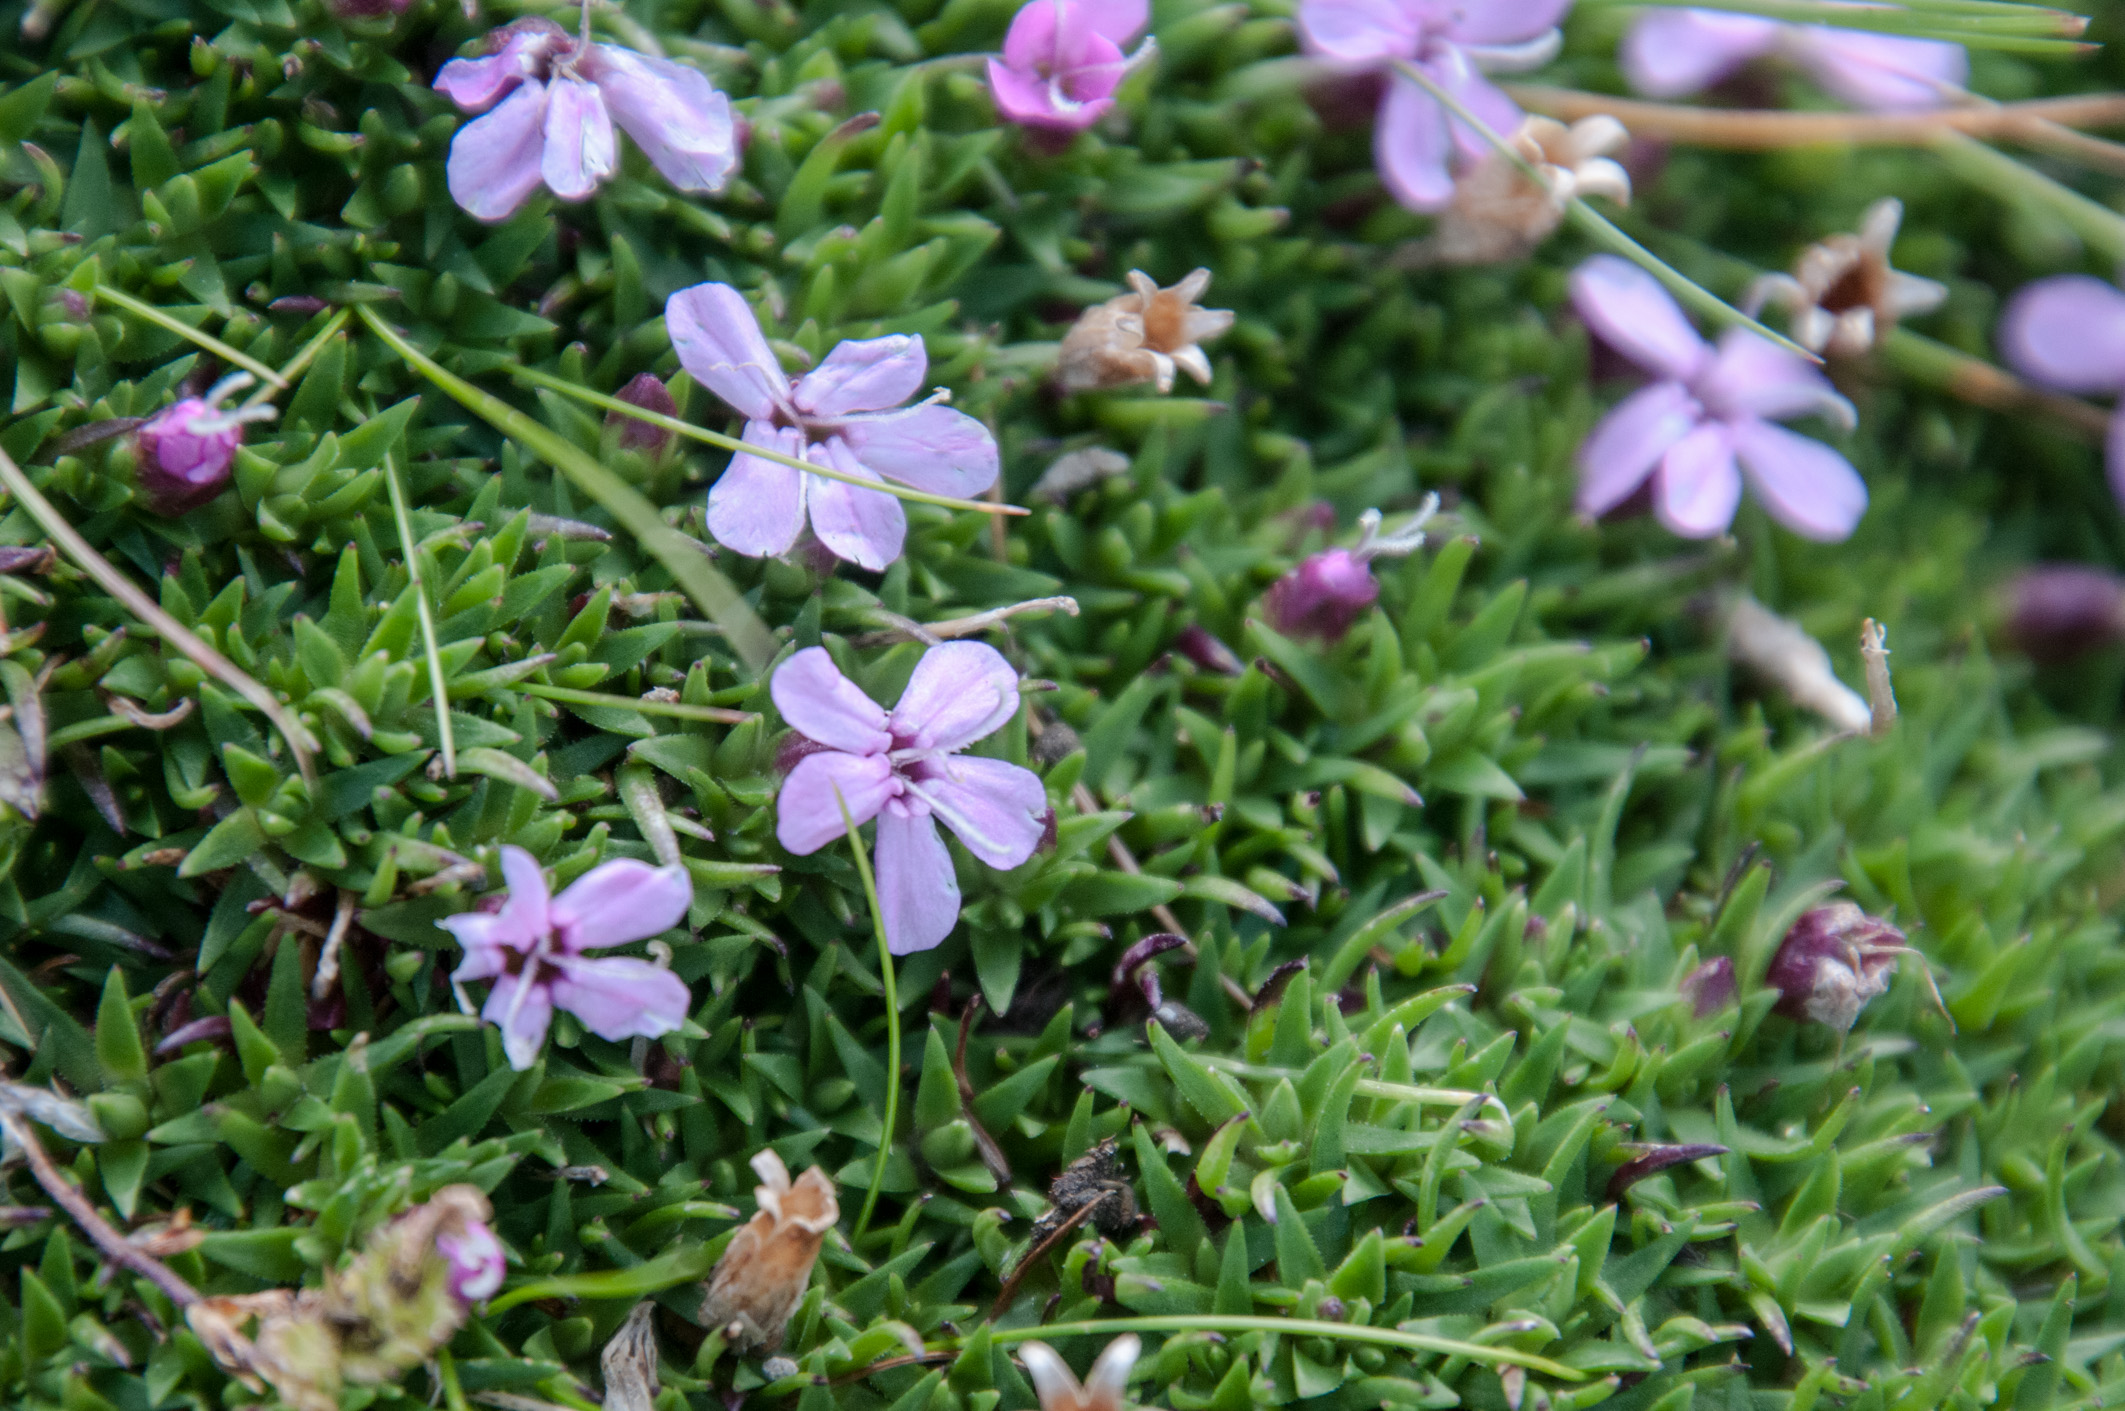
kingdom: Plantae
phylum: Tracheophyta
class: Magnoliopsida
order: Caryophyllales
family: Caryophyllaceae
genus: Silene
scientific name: Silene acaulis
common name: Moss campion
